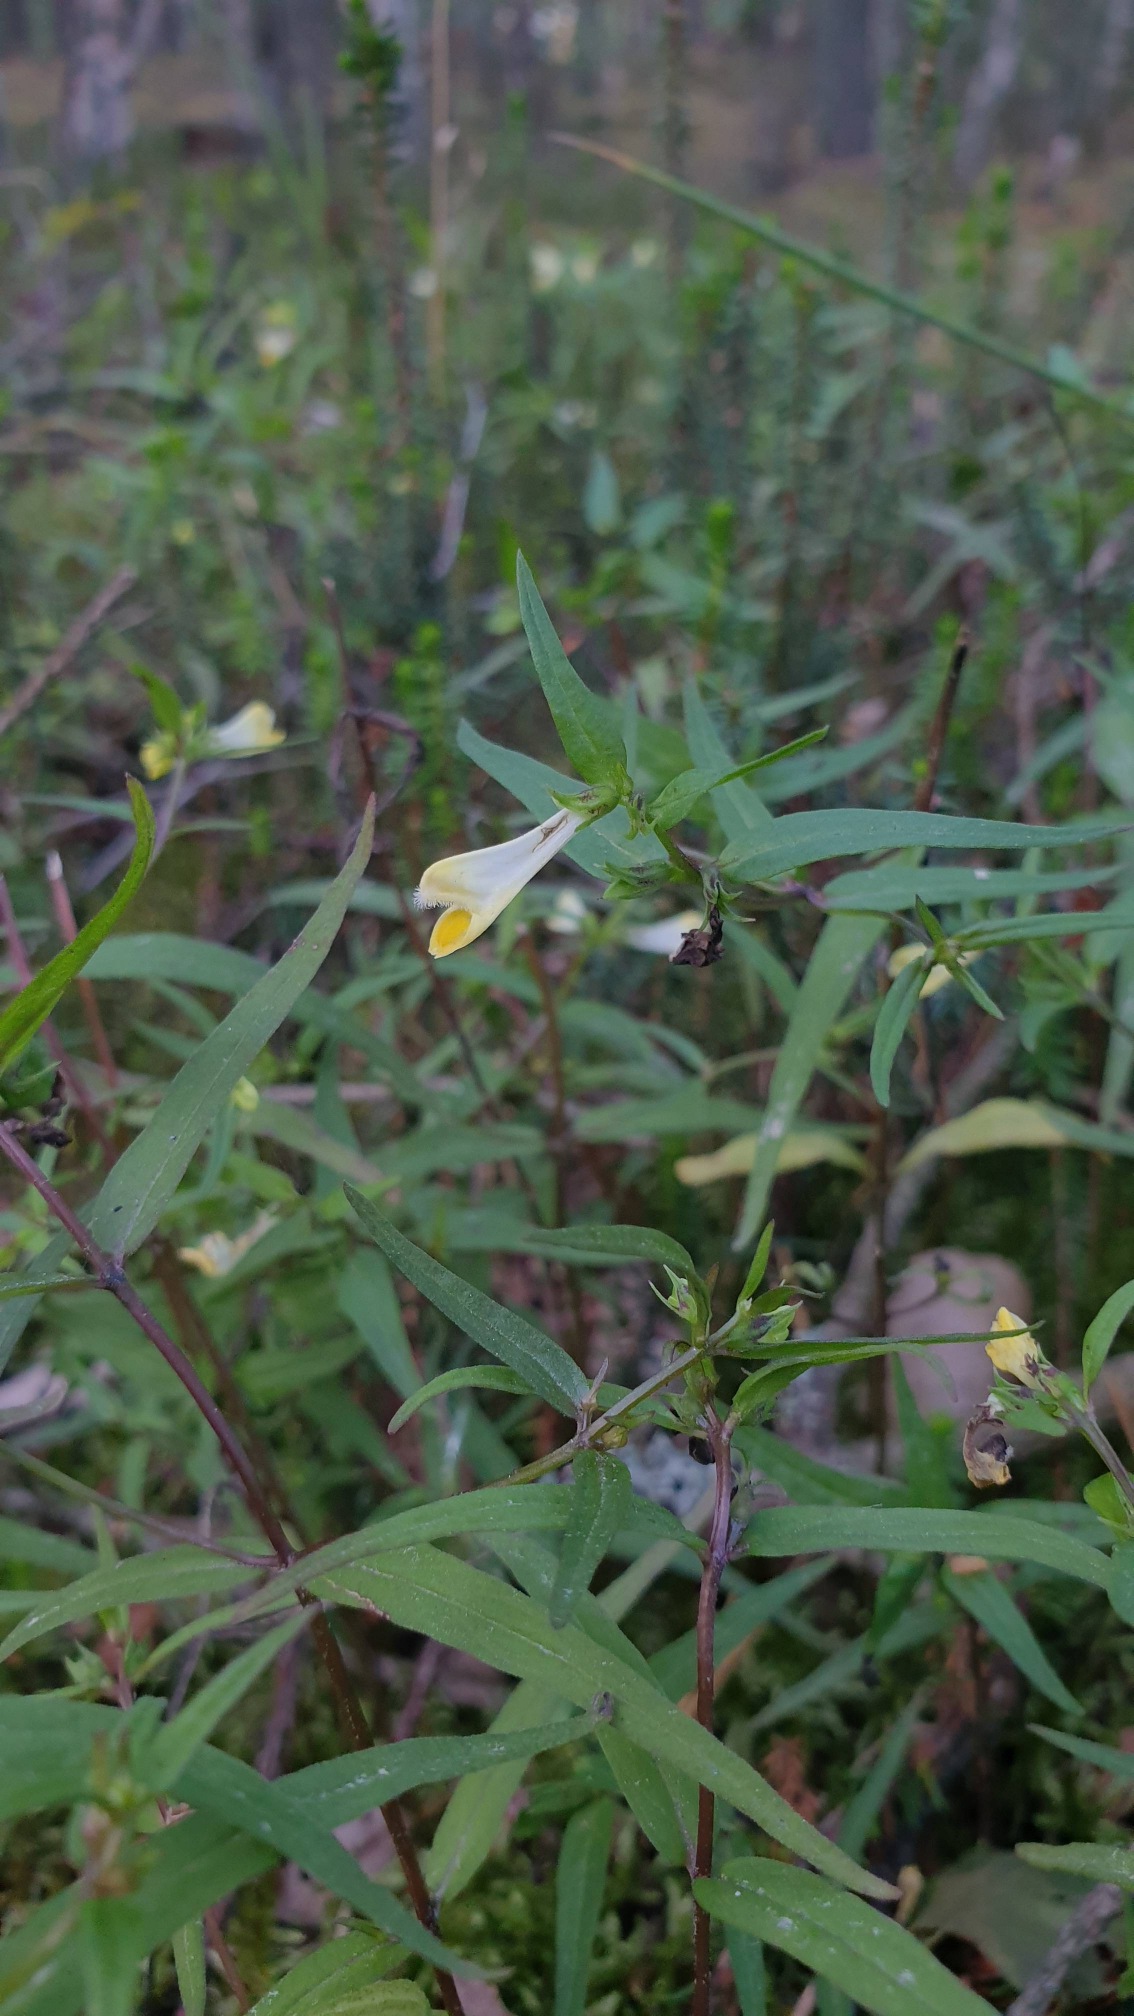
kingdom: Plantae
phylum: Tracheophyta
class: Magnoliopsida
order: Lamiales
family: Orobanchaceae
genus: Melampyrum
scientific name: Melampyrum pratense
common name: Almindelig kohvede
